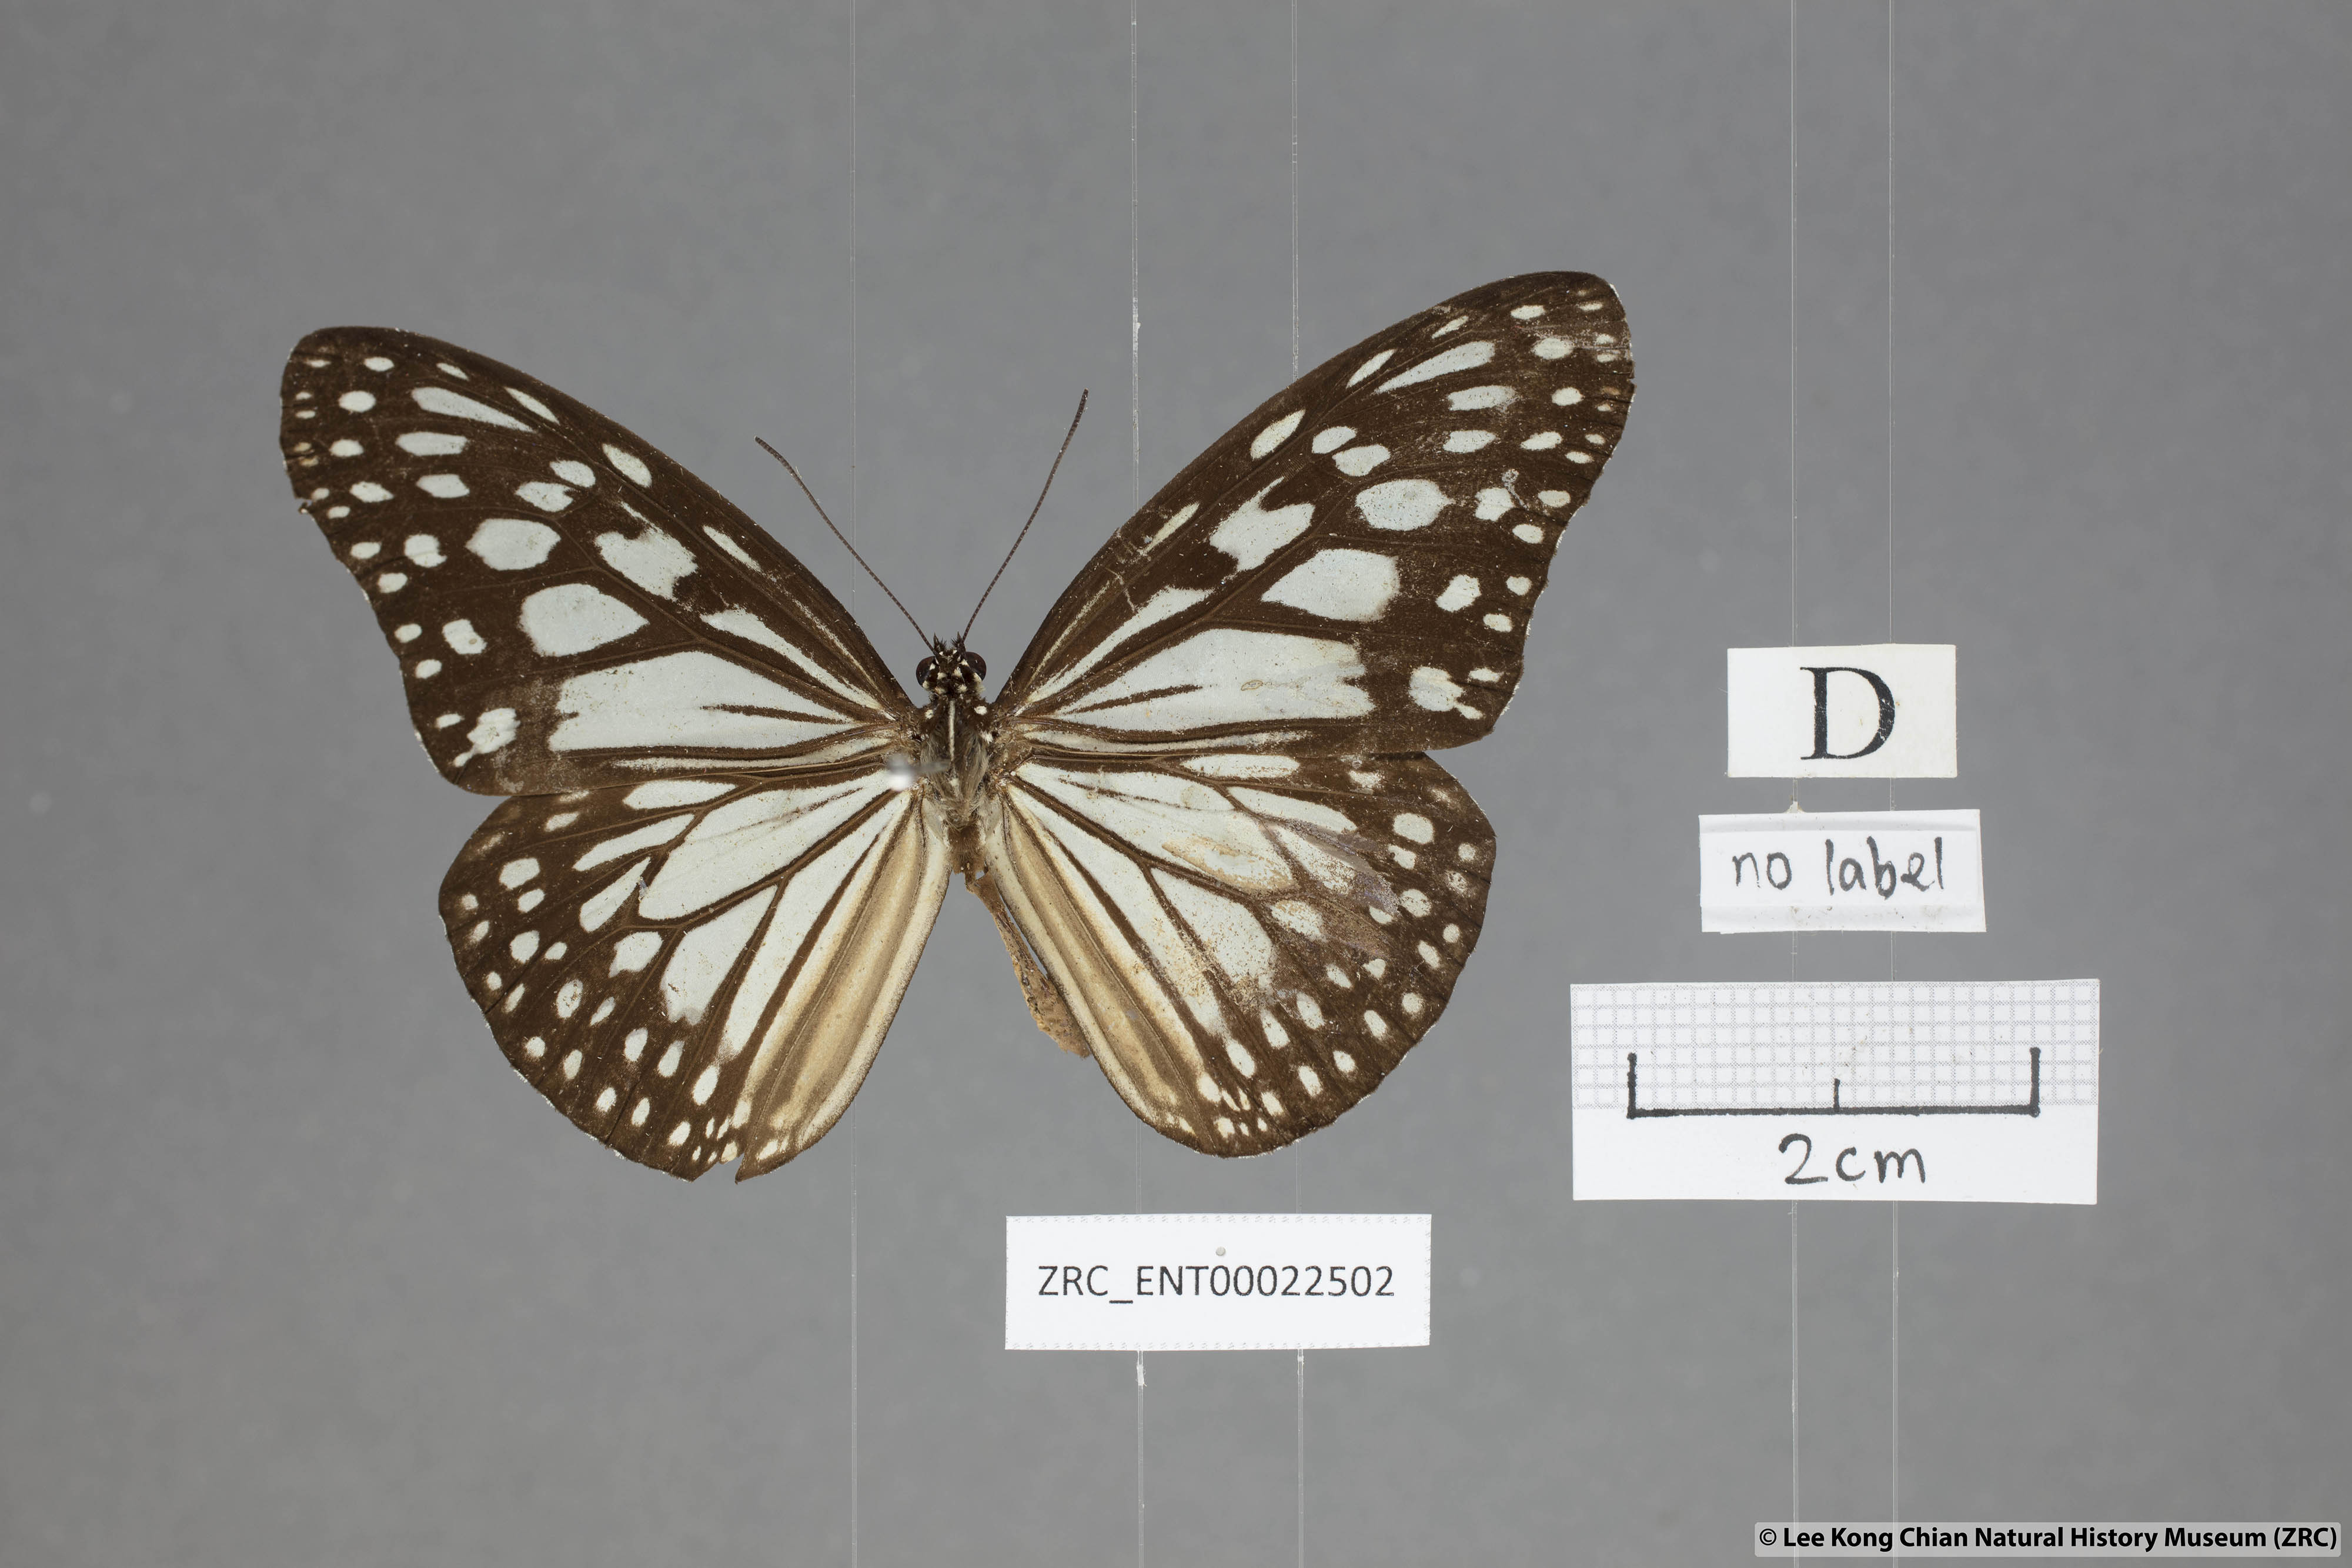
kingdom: Animalia
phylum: Arthropoda
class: Insecta
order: Lepidoptera
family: Nymphalidae
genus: Ideopsis
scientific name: Ideopsis juventa
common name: Grey glassy tiger
